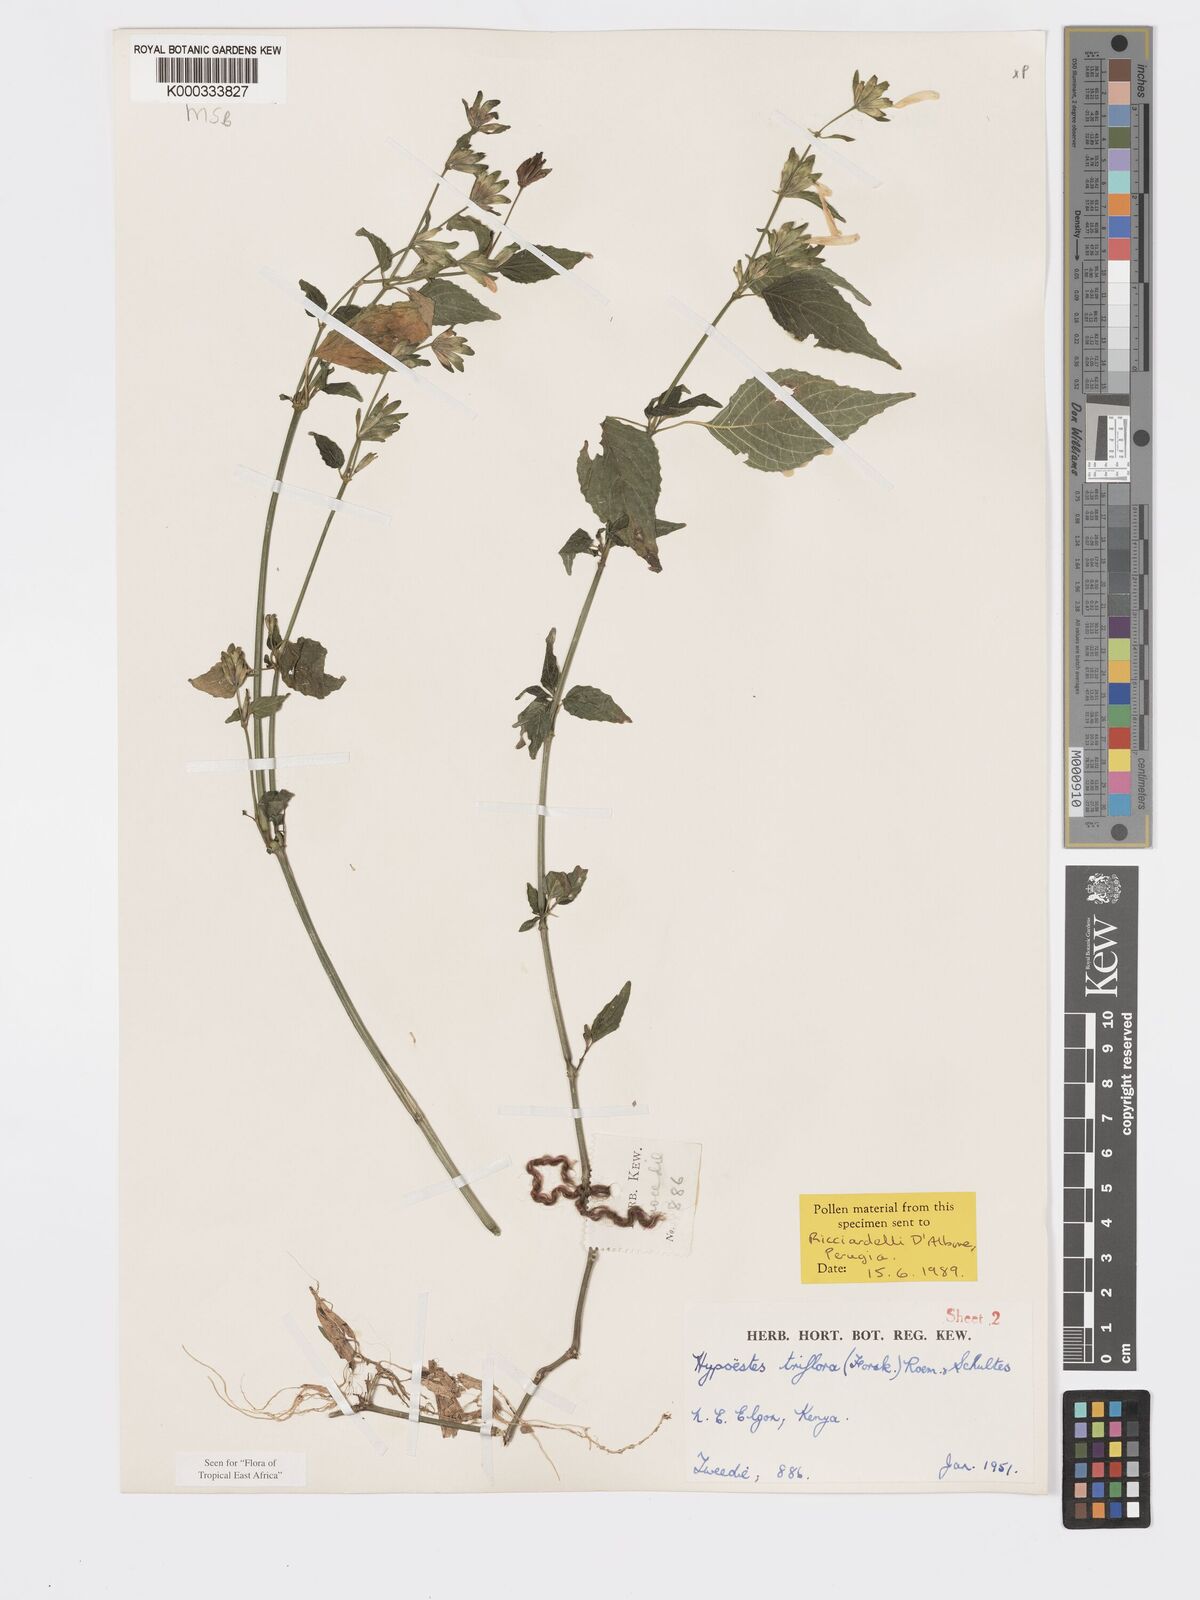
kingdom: Plantae
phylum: Tracheophyta
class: Magnoliopsida
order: Lamiales
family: Acanthaceae
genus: Hypoestes
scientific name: Hypoestes triflora
